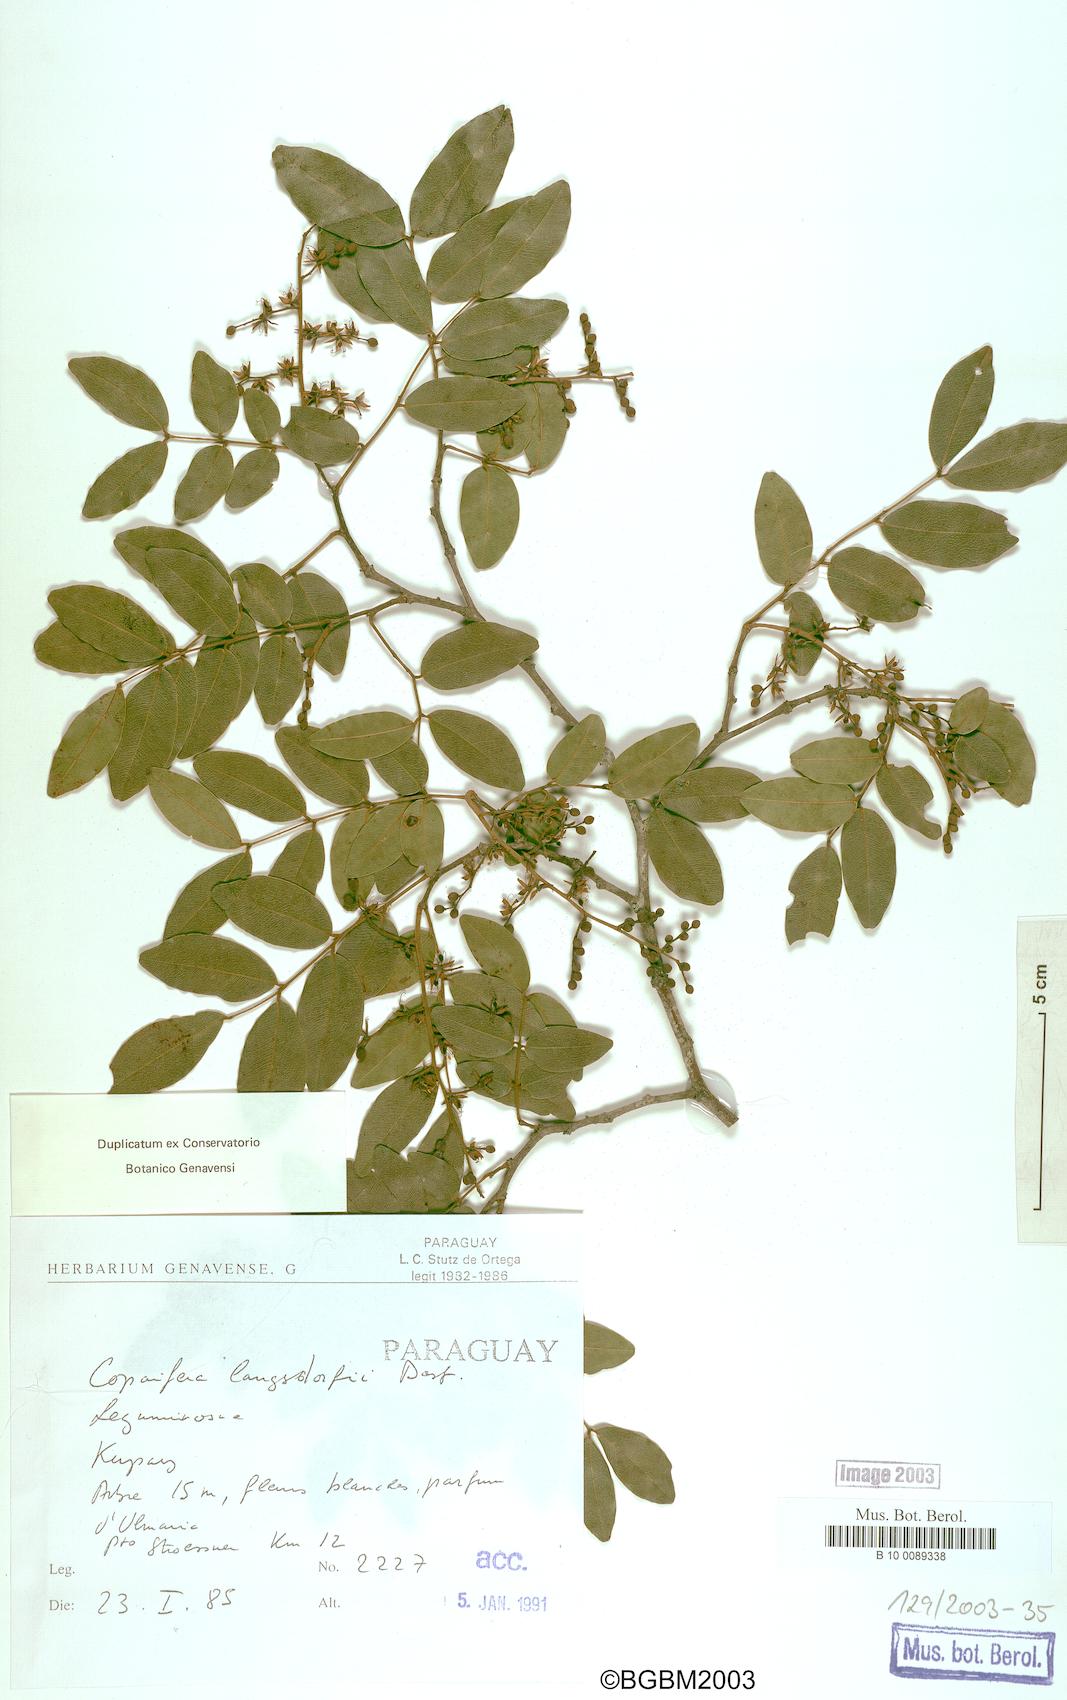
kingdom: Plantae
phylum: Tracheophyta
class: Magnoliopsida
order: Fabales
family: Fabaceae
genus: Copaifera
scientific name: Copaifera langsdorffii
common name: Brazilian diesel tree
